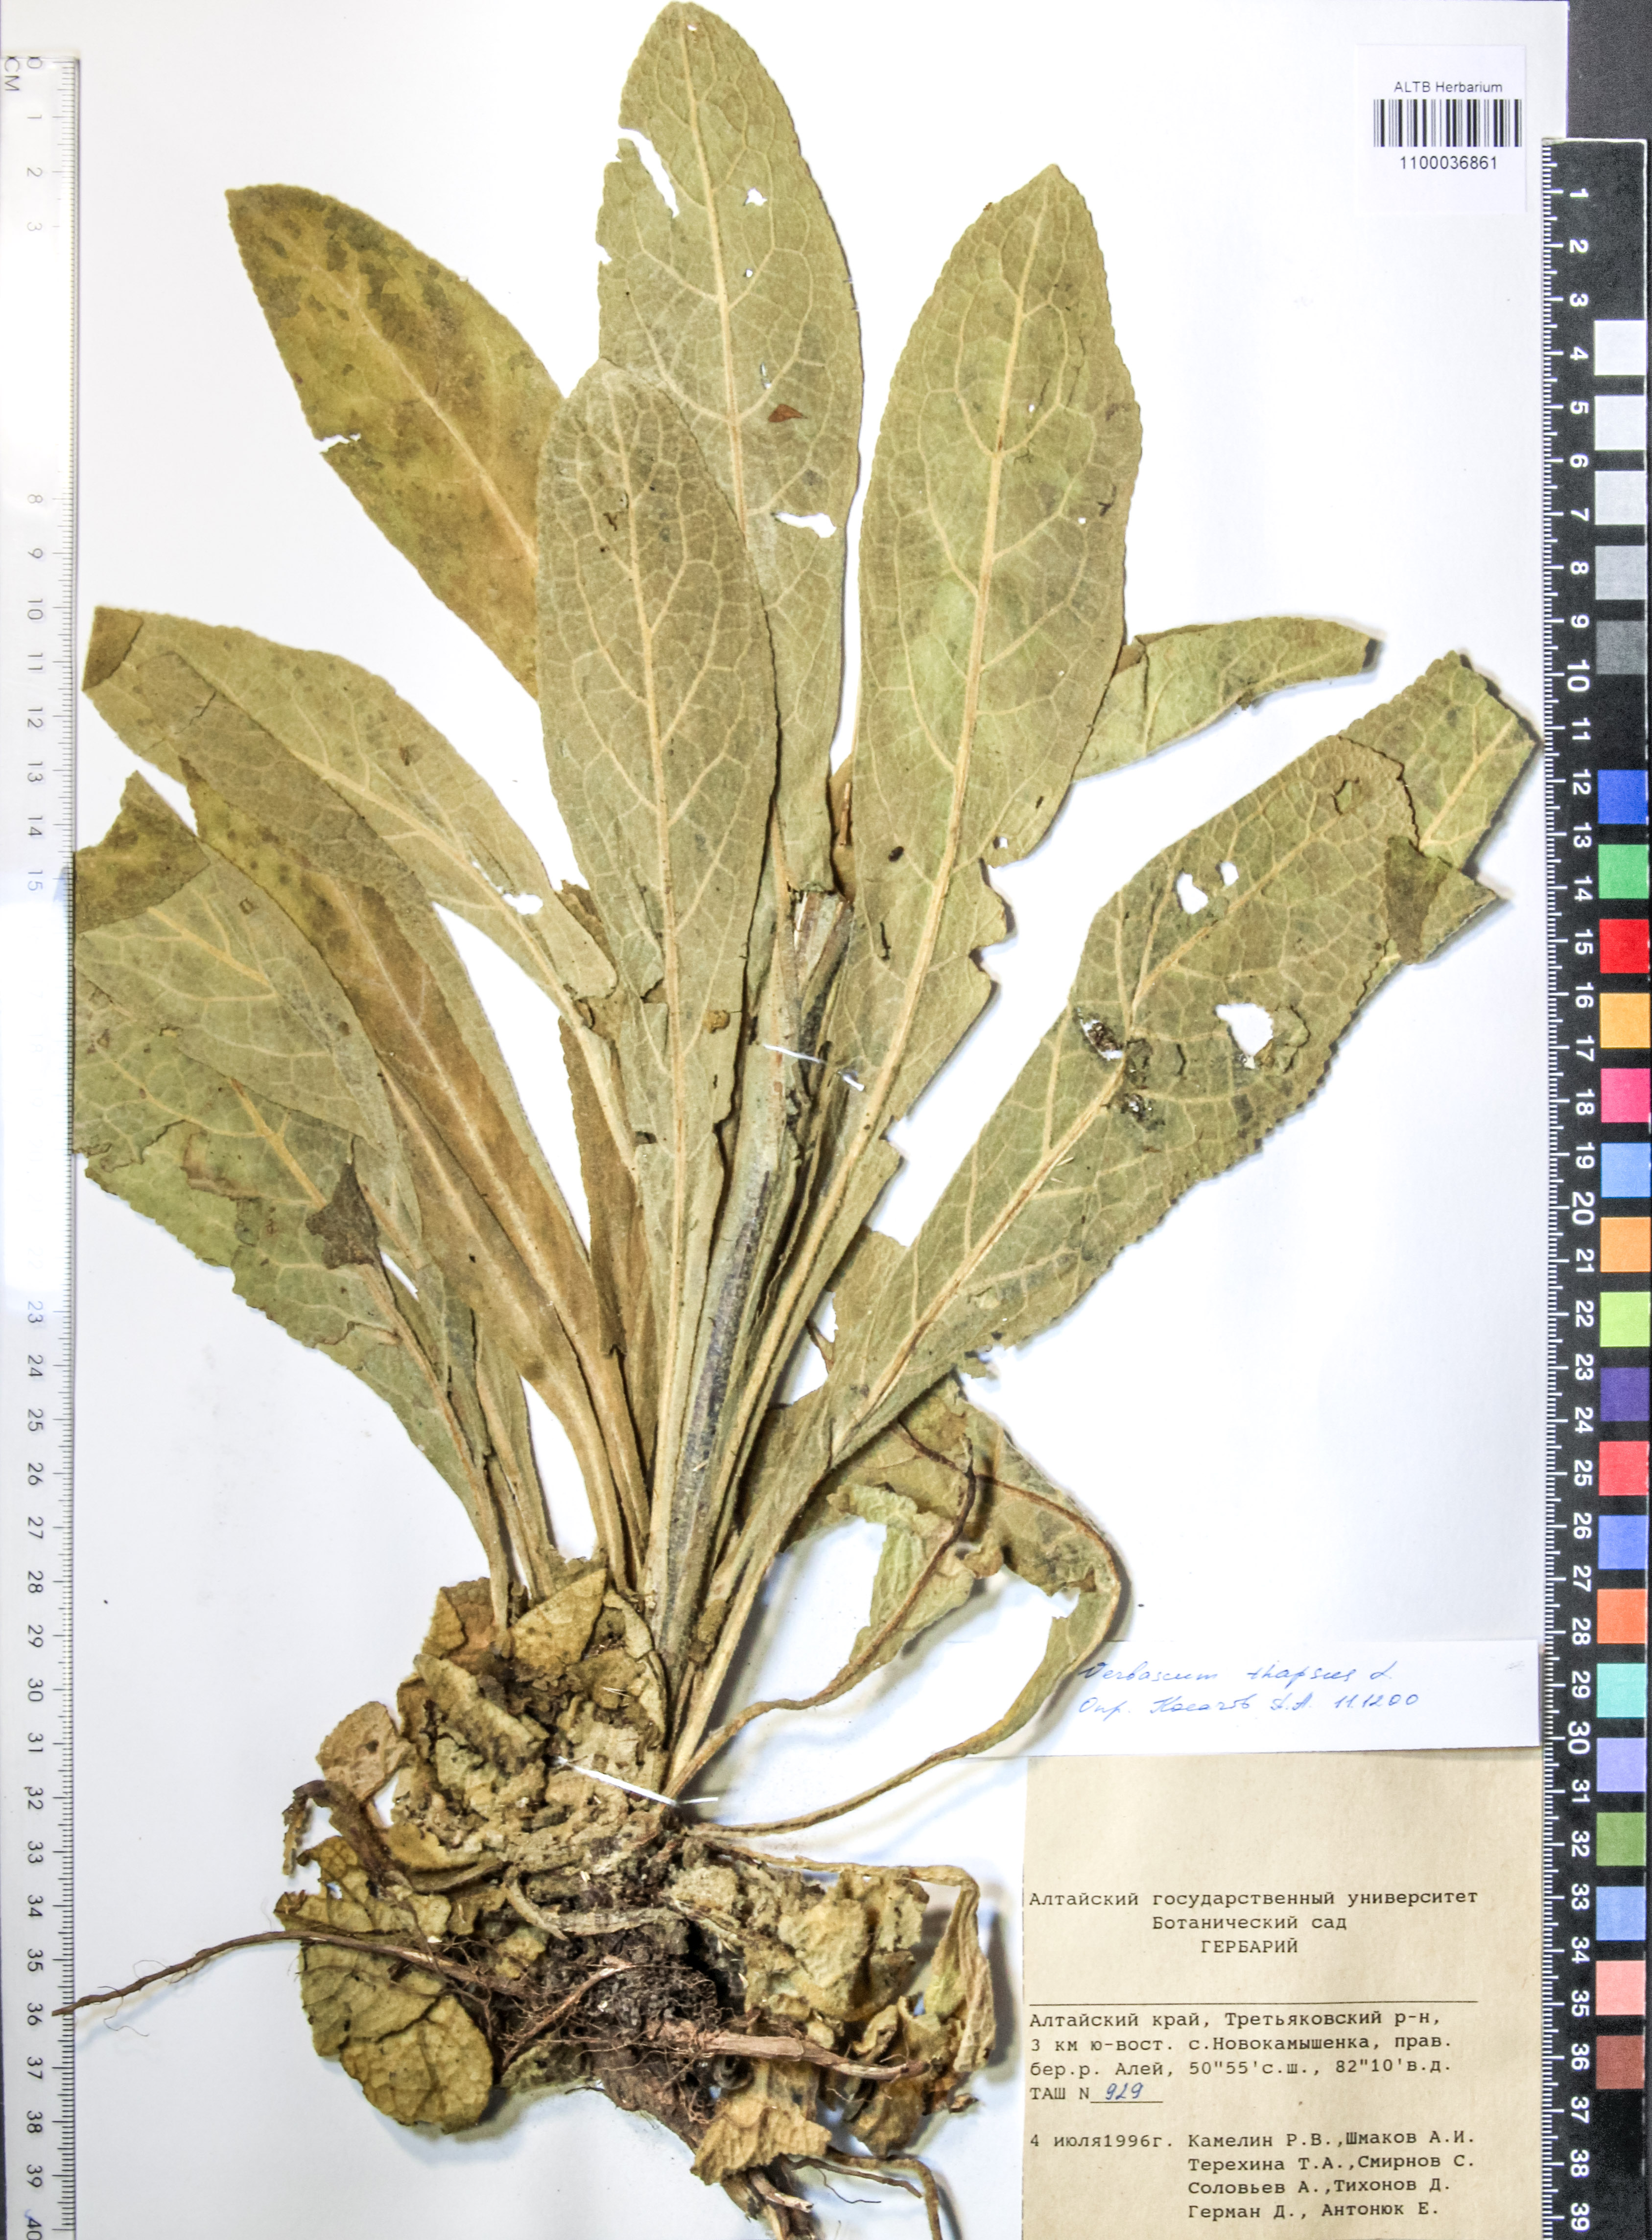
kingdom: Plantae
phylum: Tracheophyta
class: Magnoliopsida
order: Lamiales
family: Scrophulariaceae
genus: Verbascum
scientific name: Verbascum thapsus
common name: Common mullein
